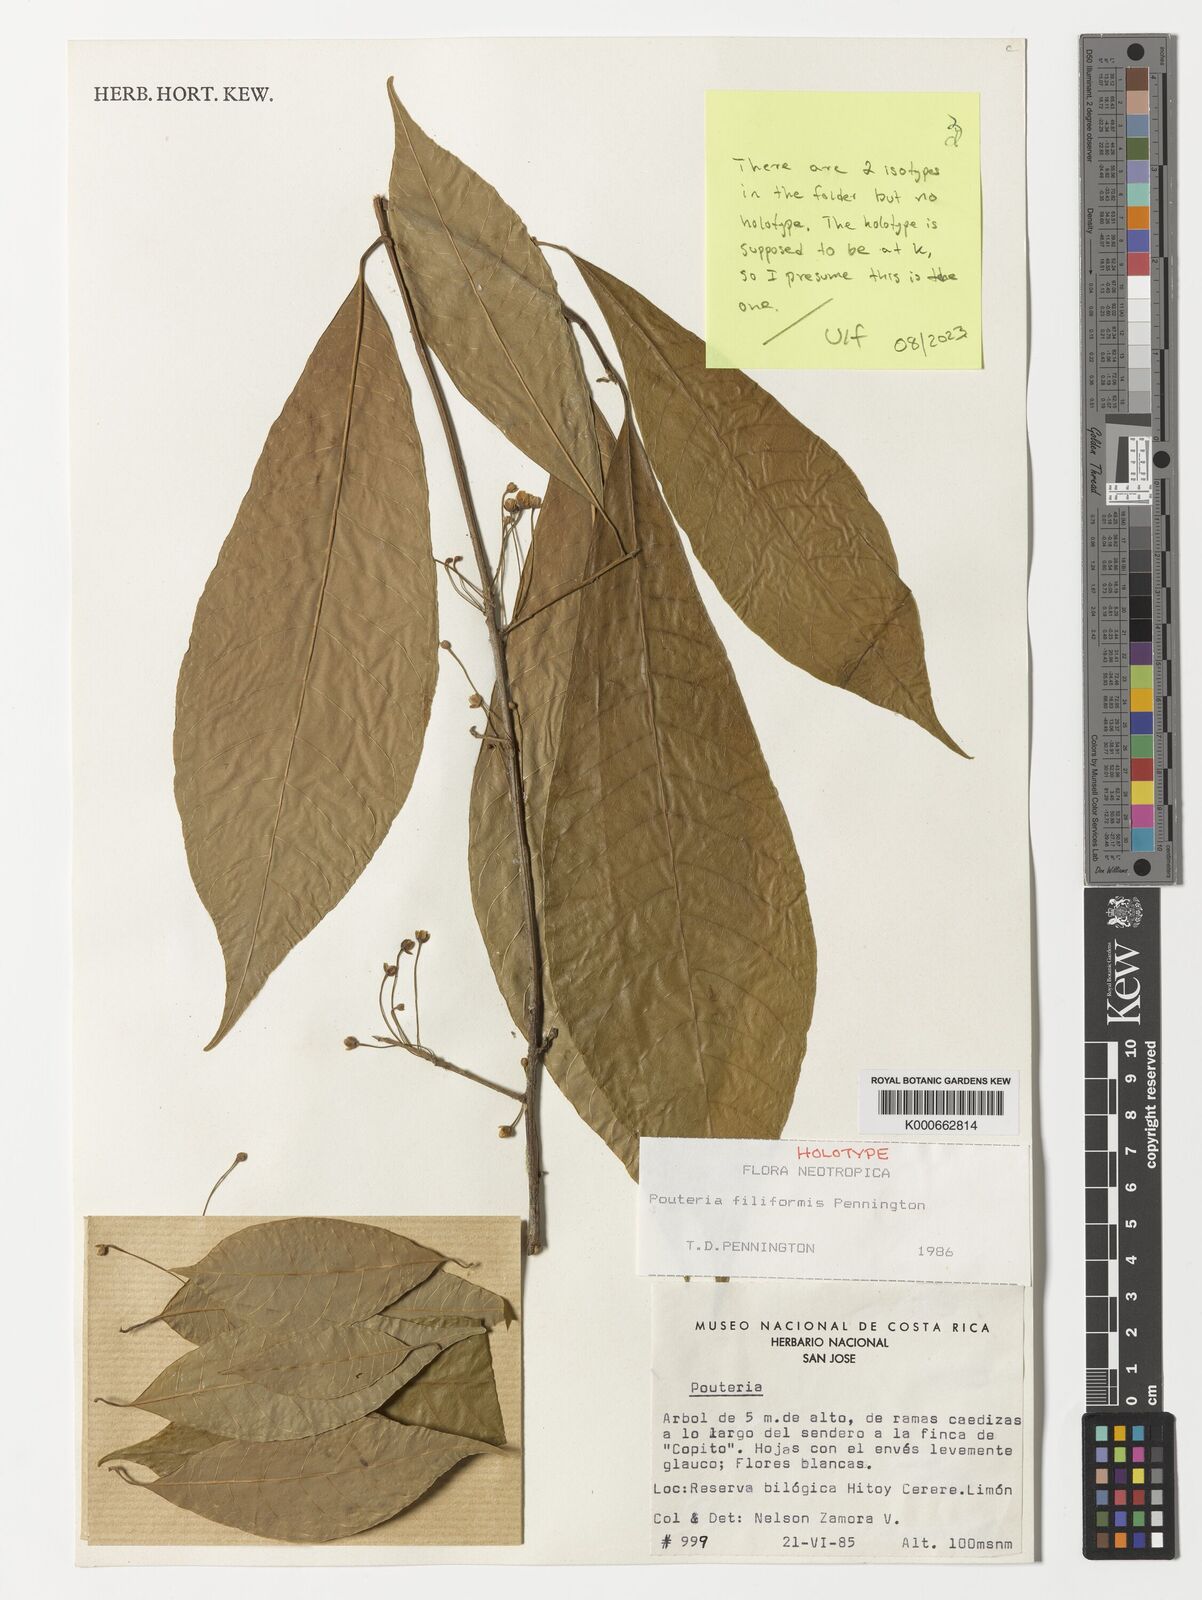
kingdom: Plantae
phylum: Tracheophyta
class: Magnoliopsida
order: Ericales
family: Sapotaceae
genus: Pouteria
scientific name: Pouteria filiformis
